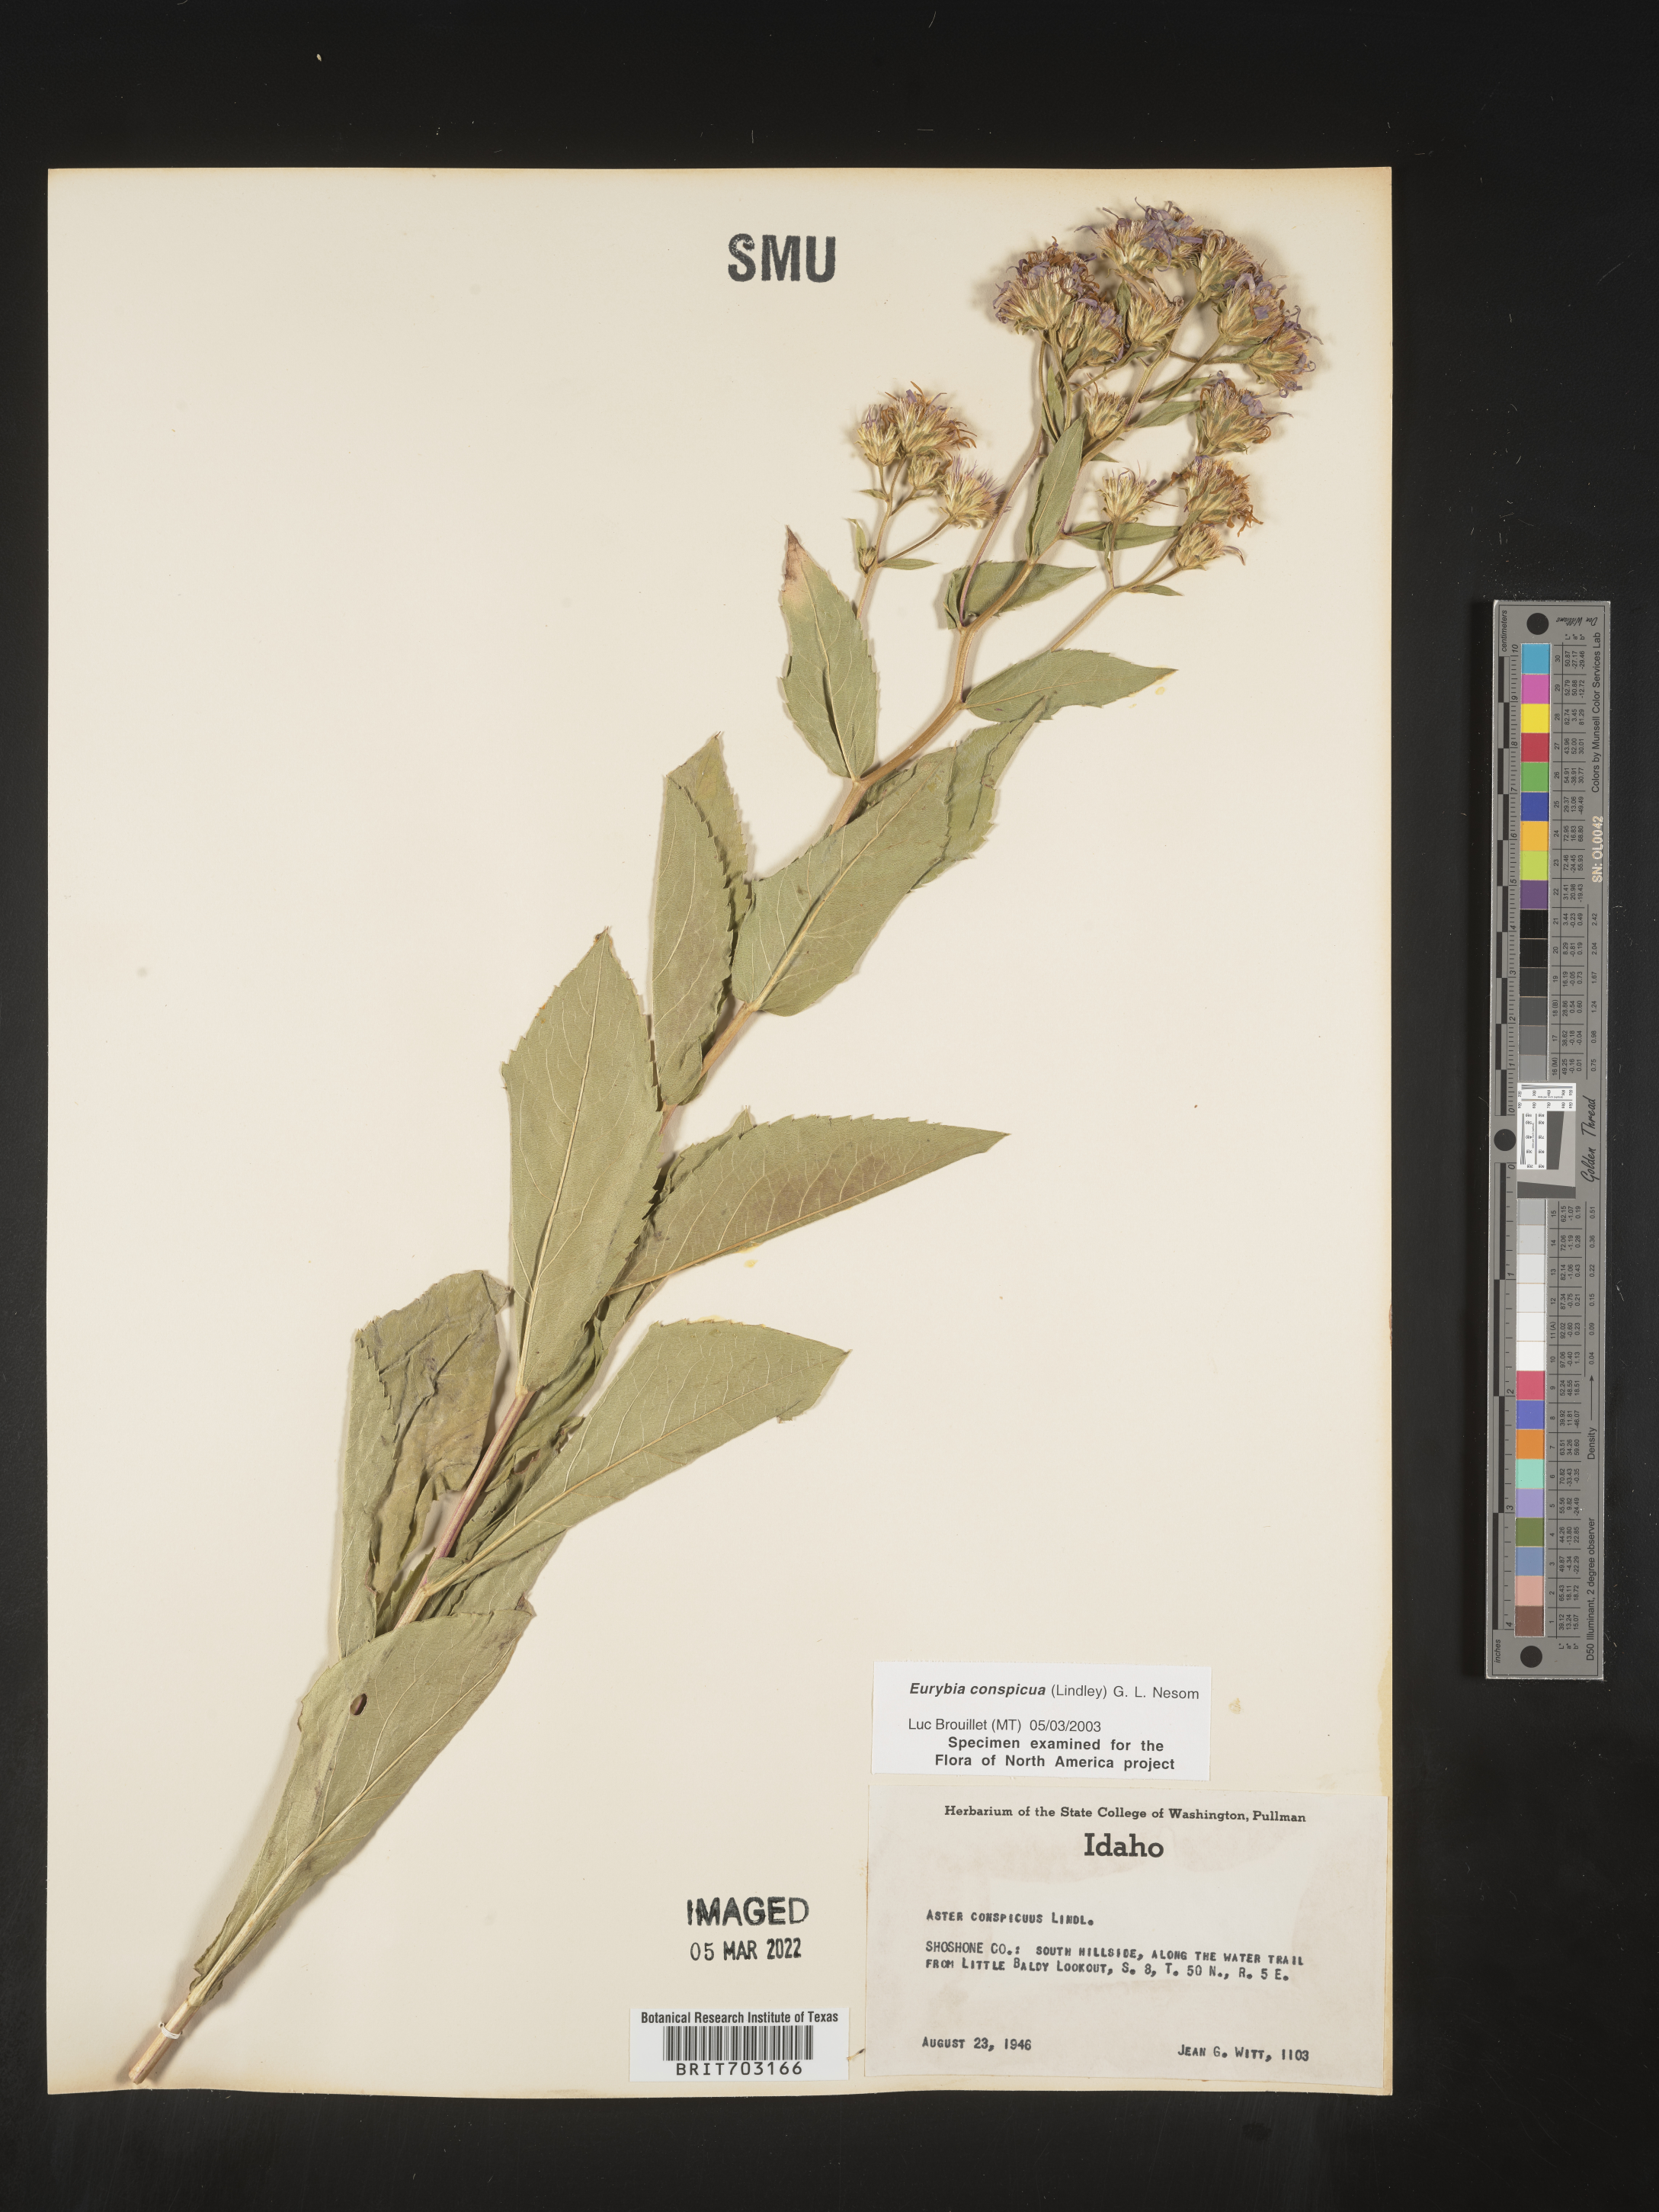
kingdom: Plantae
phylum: Tracheophyta
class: Magnoliopsida
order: Asterales
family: Asteraceae
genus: Eurybia
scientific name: Eurybia conspicua
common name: Showy aster
